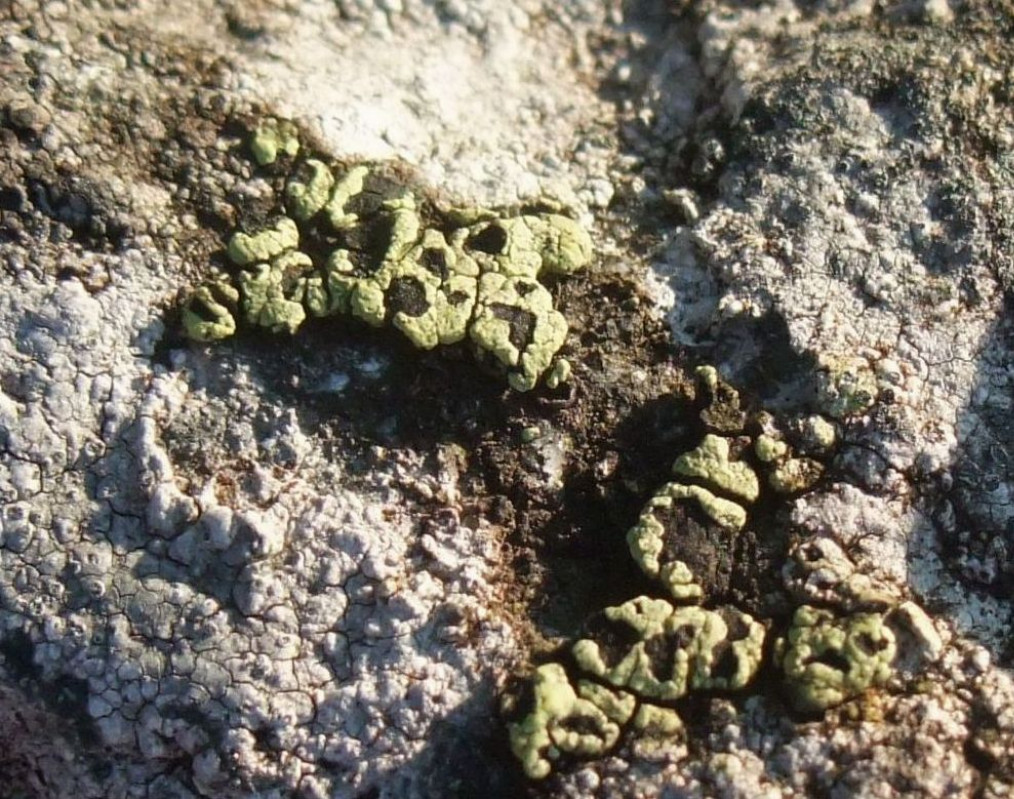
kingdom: Fungi
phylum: Ascomycota
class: Lecanoromycetes
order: Rhizocarpales
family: Rhizocarpaceae
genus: Rhizocarpon
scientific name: Rhizocarpon lecanorinum
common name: krave-landkortlav
